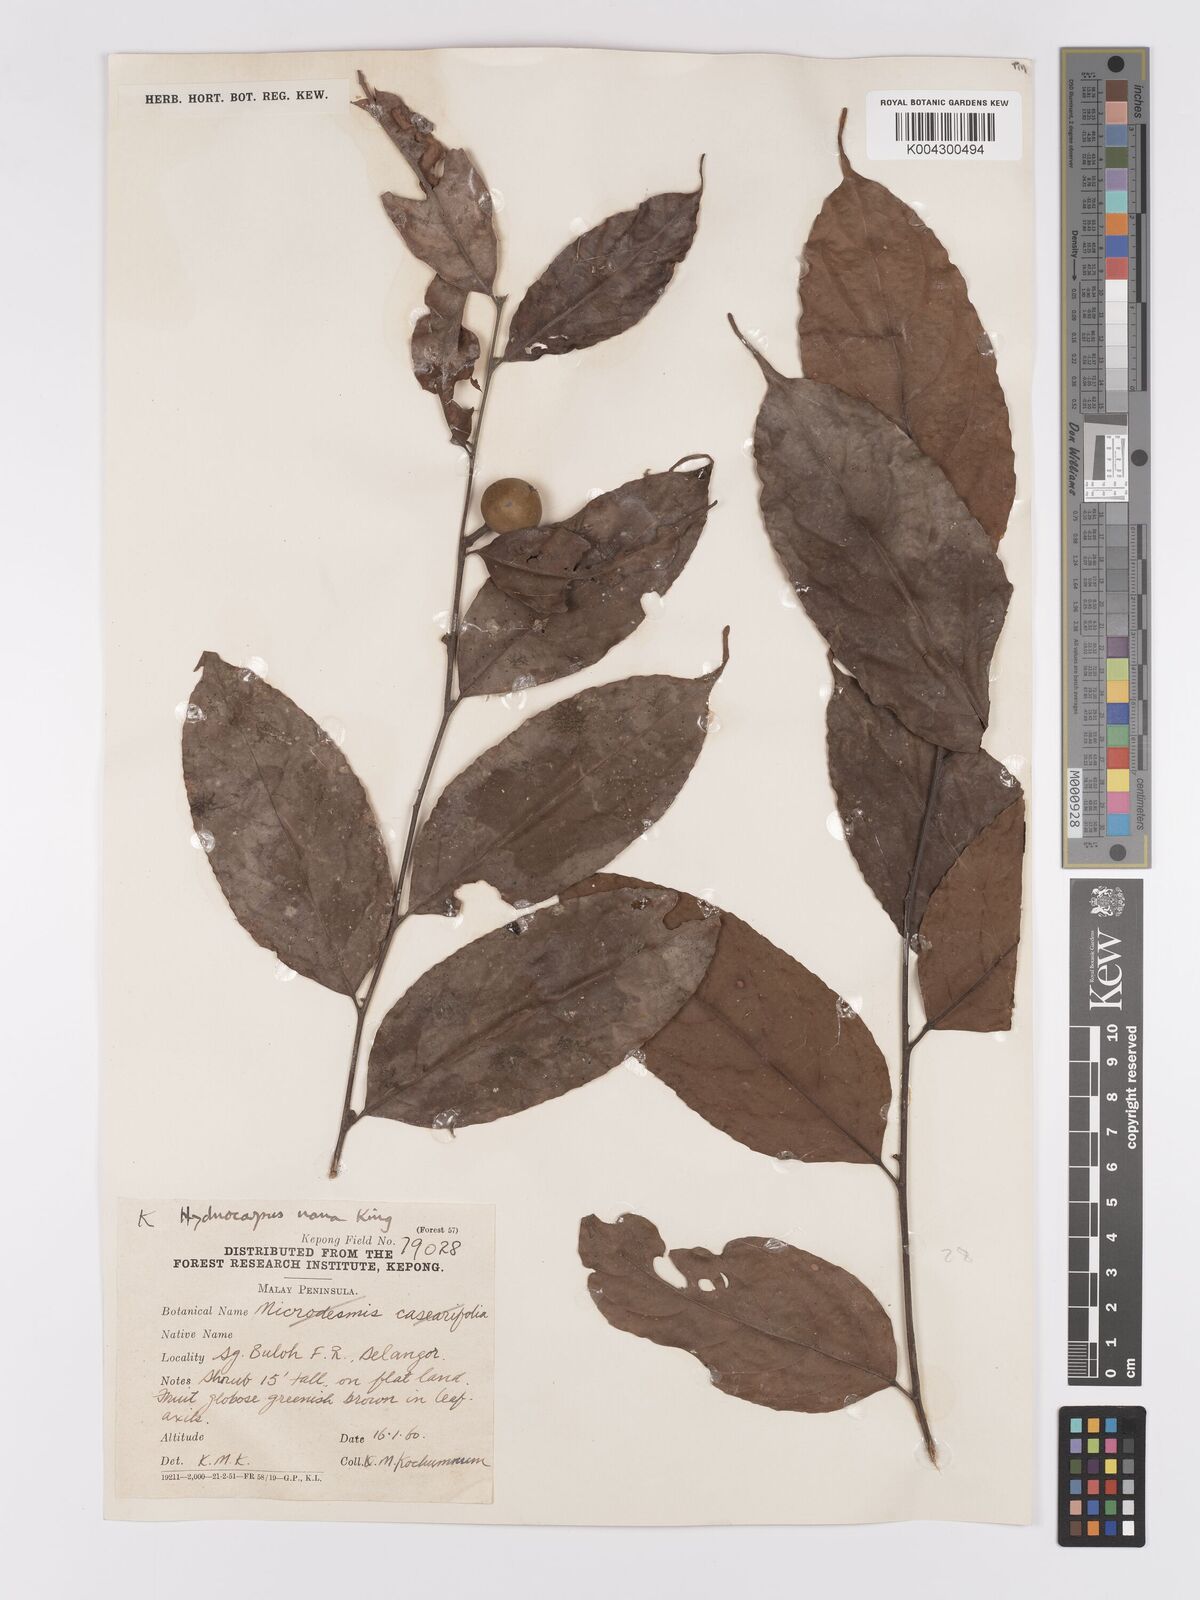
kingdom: Plantae
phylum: Tracheophyta
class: Magnoliopsida
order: Malpighiales
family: Achariaceae
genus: Hydnocarpus
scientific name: Hydnocarpus nanus
